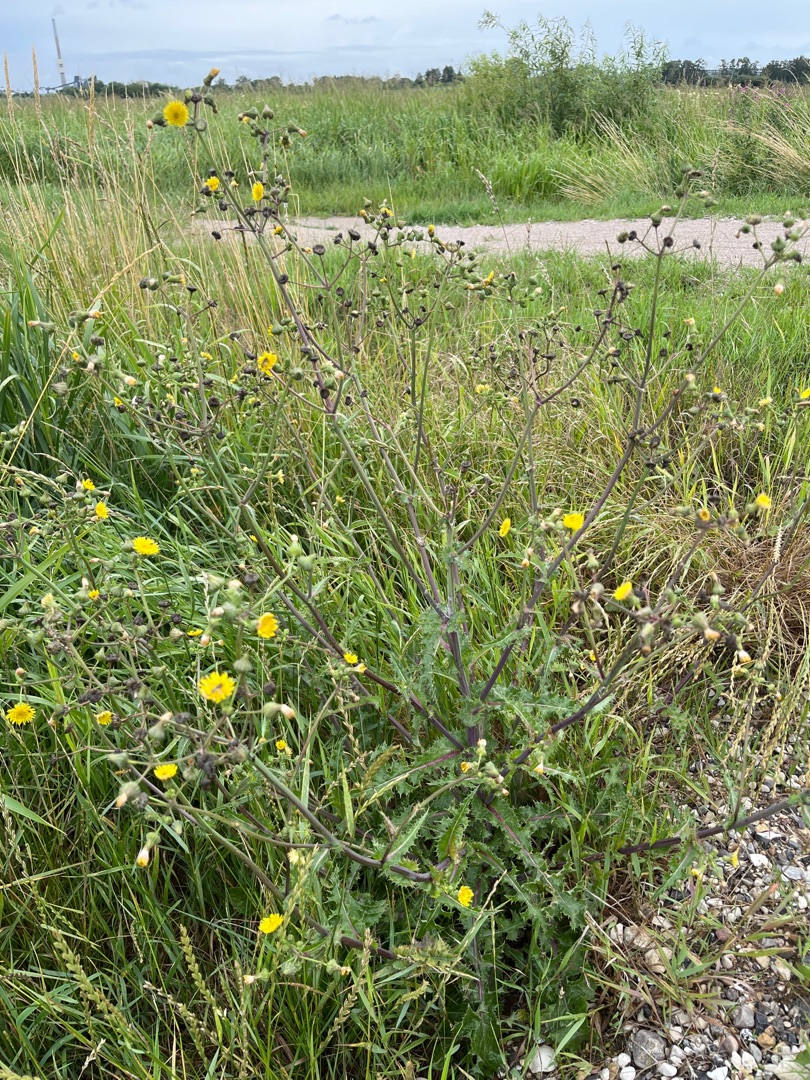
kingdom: Plantae
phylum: Tracheophyta
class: Magnoliopsida
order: Asterales
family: Asteraceae
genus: Sonchus
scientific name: Sonchus asper
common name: Ru svinemælk
